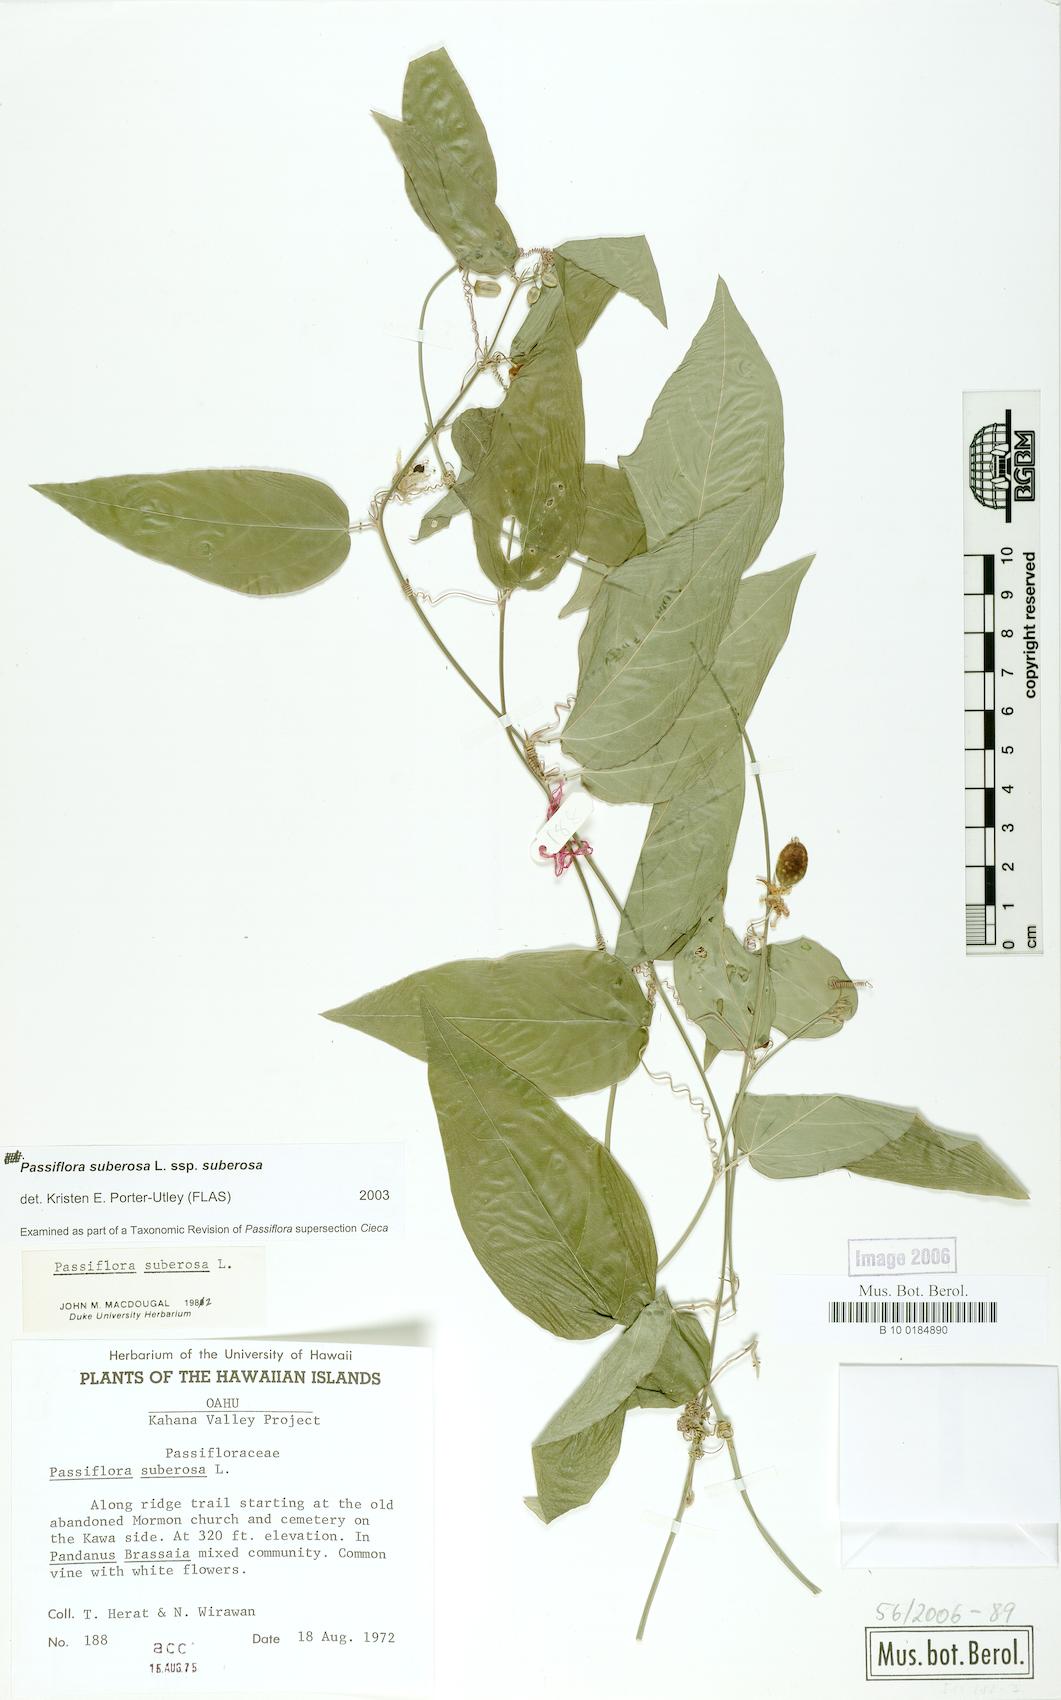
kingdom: Plantae
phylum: Tracheophyta
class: Magnoliopsida
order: Malpighiales
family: Passifloraceae
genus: Passiflora
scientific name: Passiflora suberosa
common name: Wild passionfruit
